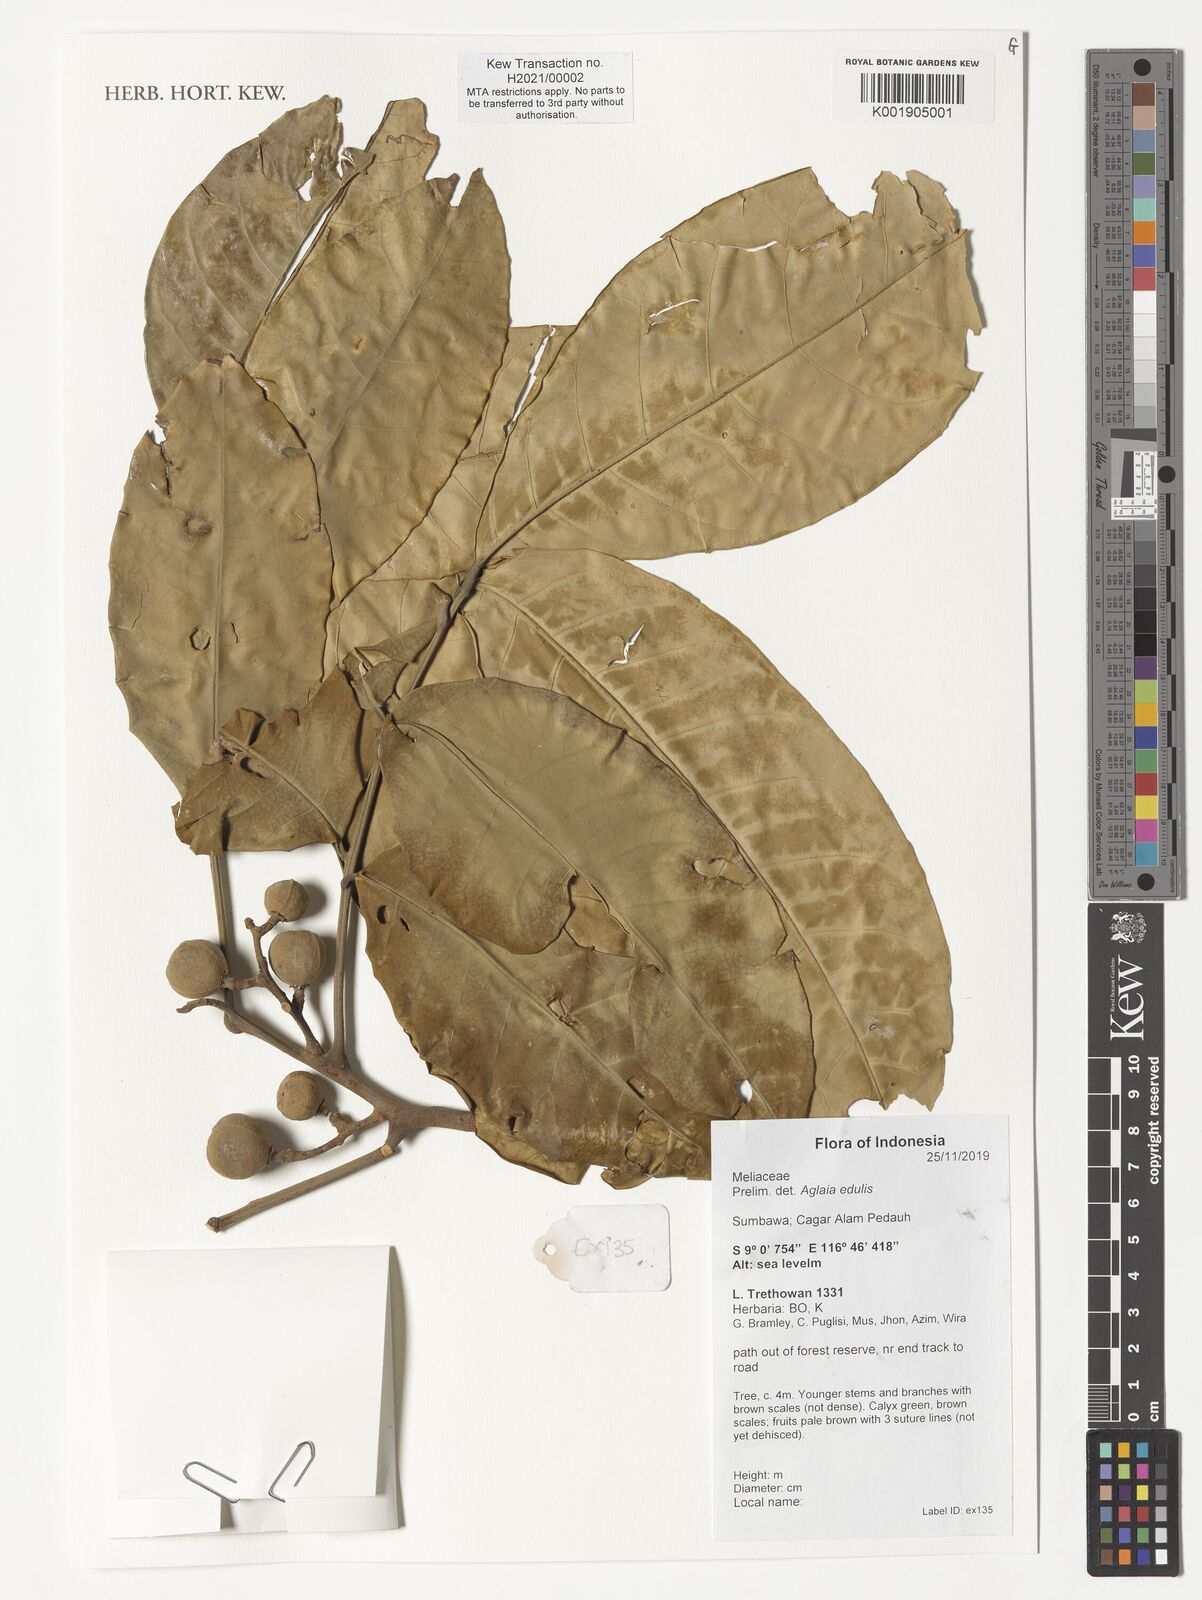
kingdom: Plantae
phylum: Tracheophyta
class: Magnoliopsida
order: Sapindales
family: Meliaceae
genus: Aglaia
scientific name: Aglaia basiphylla
